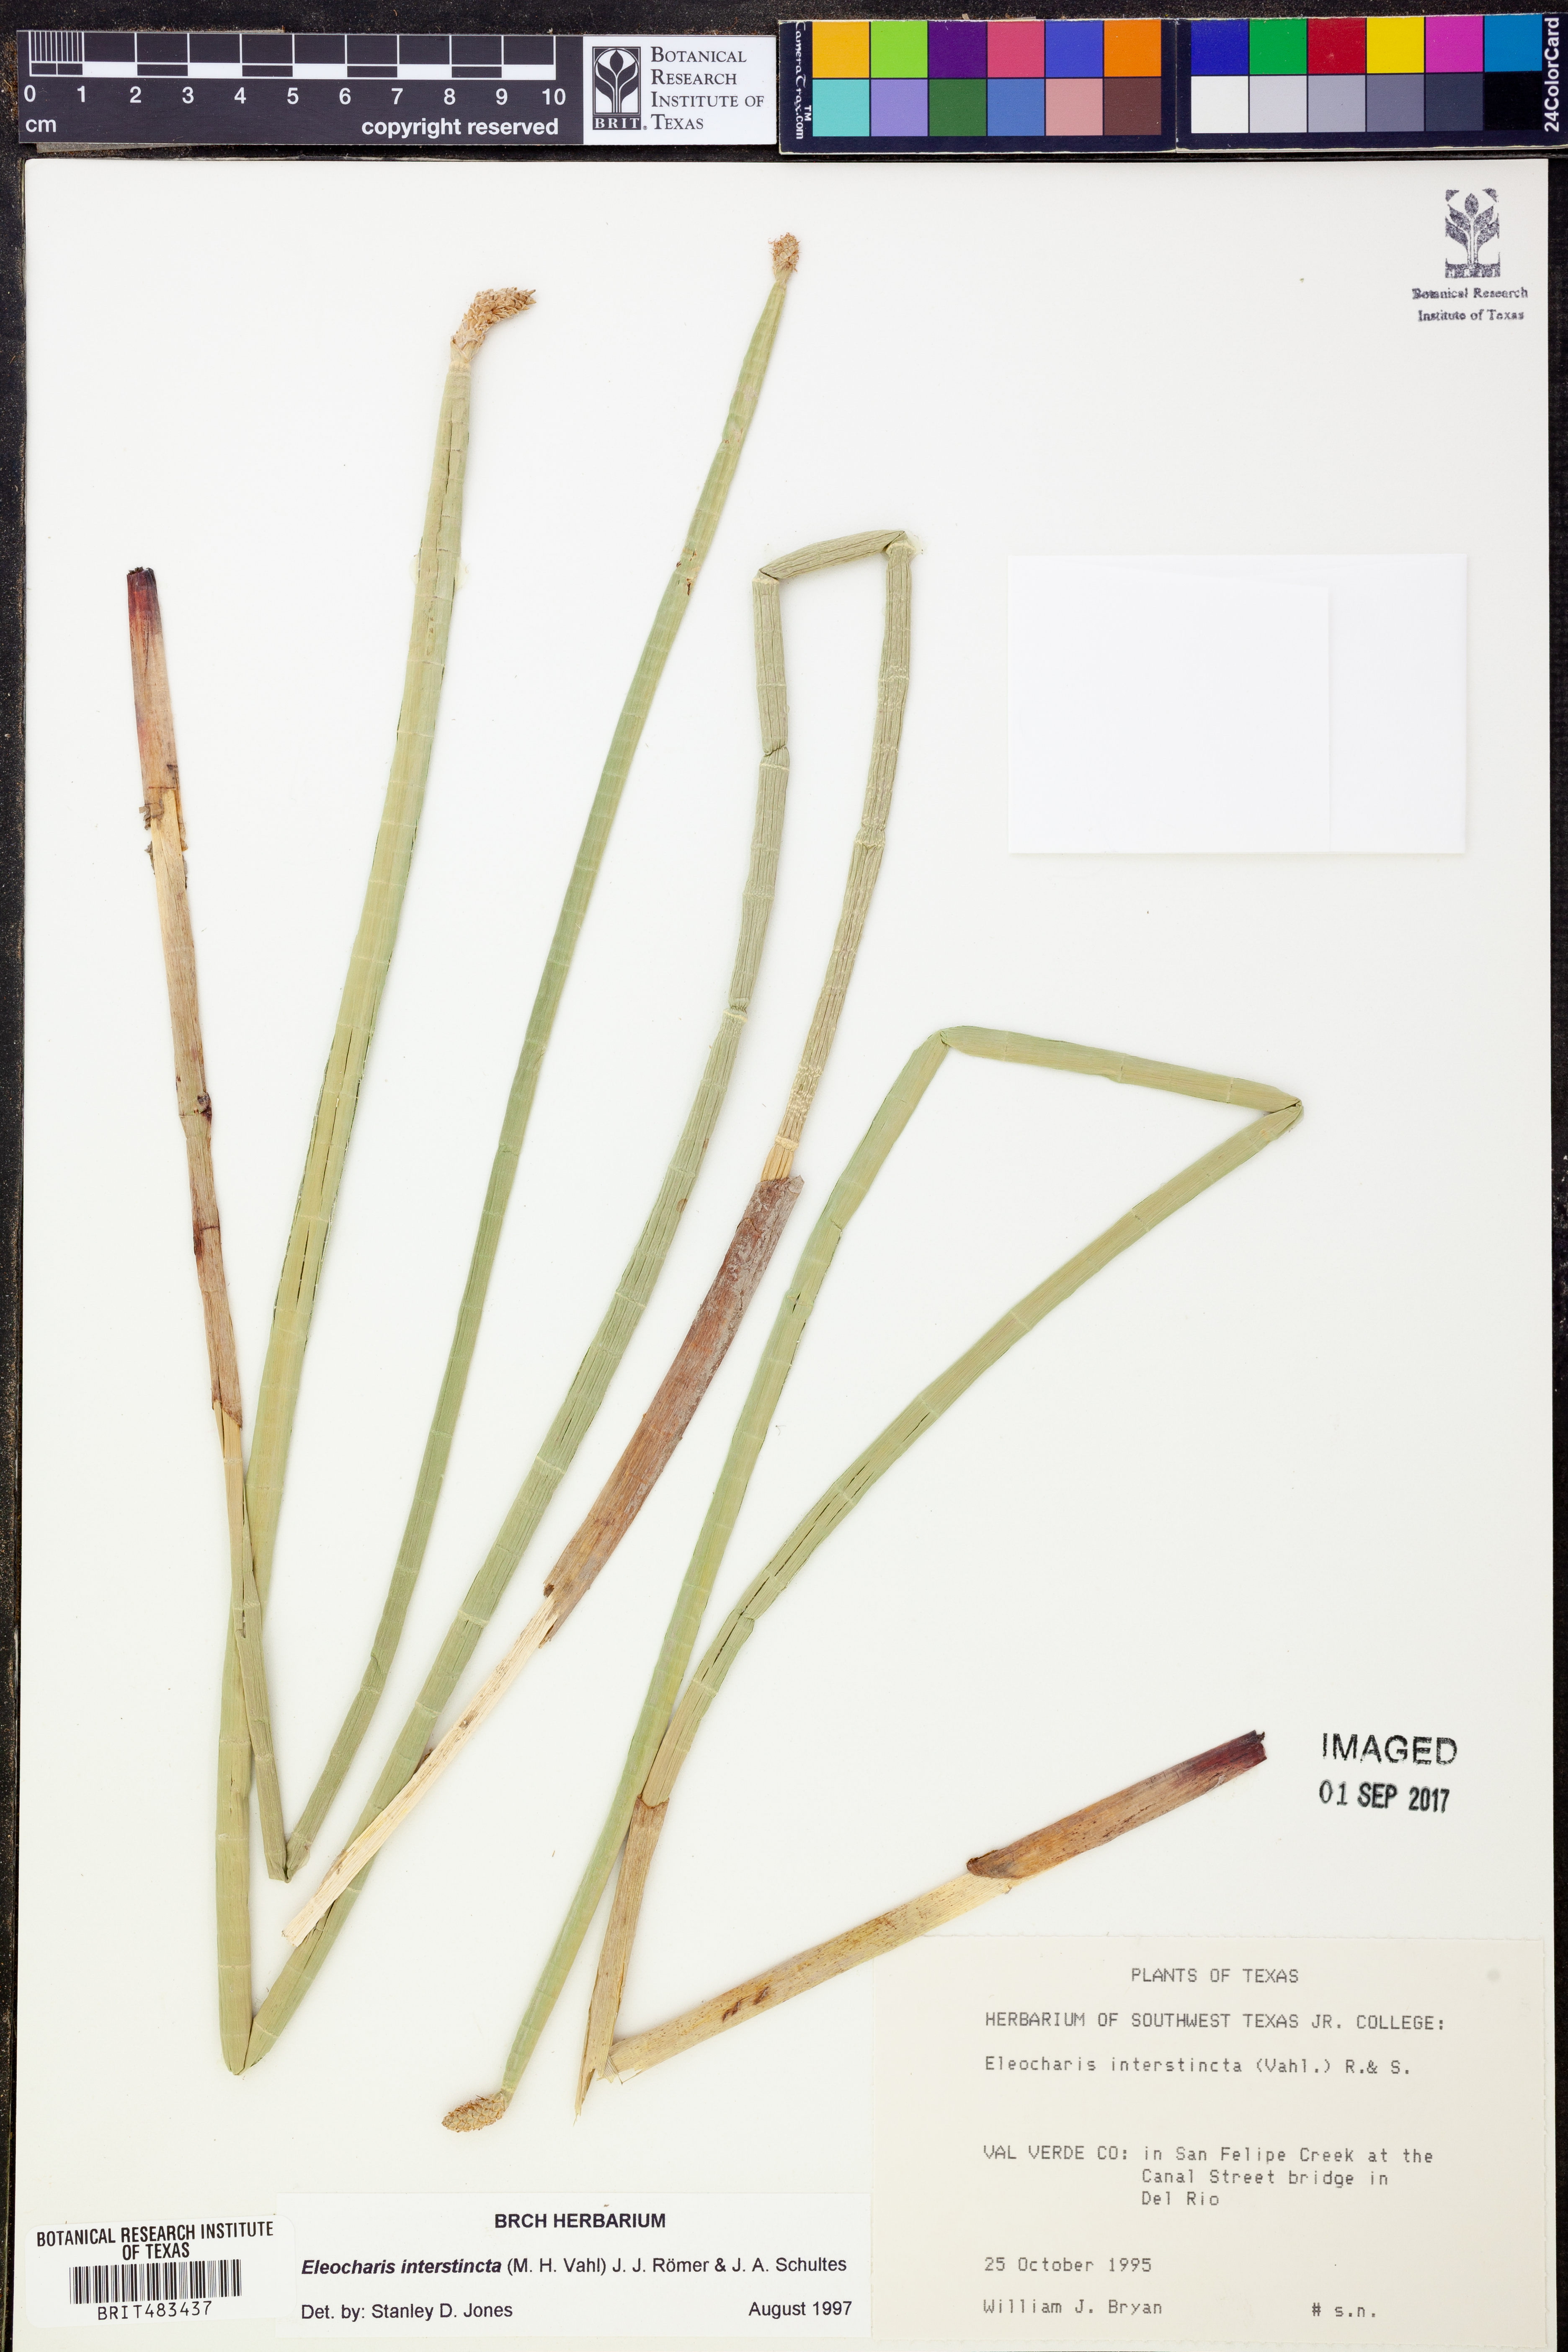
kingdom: Plantae
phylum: Tracheophyta
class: Liliopsida
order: Poales
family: Cyperaceae
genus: Eleocharis
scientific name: Eleocharis interstincta
